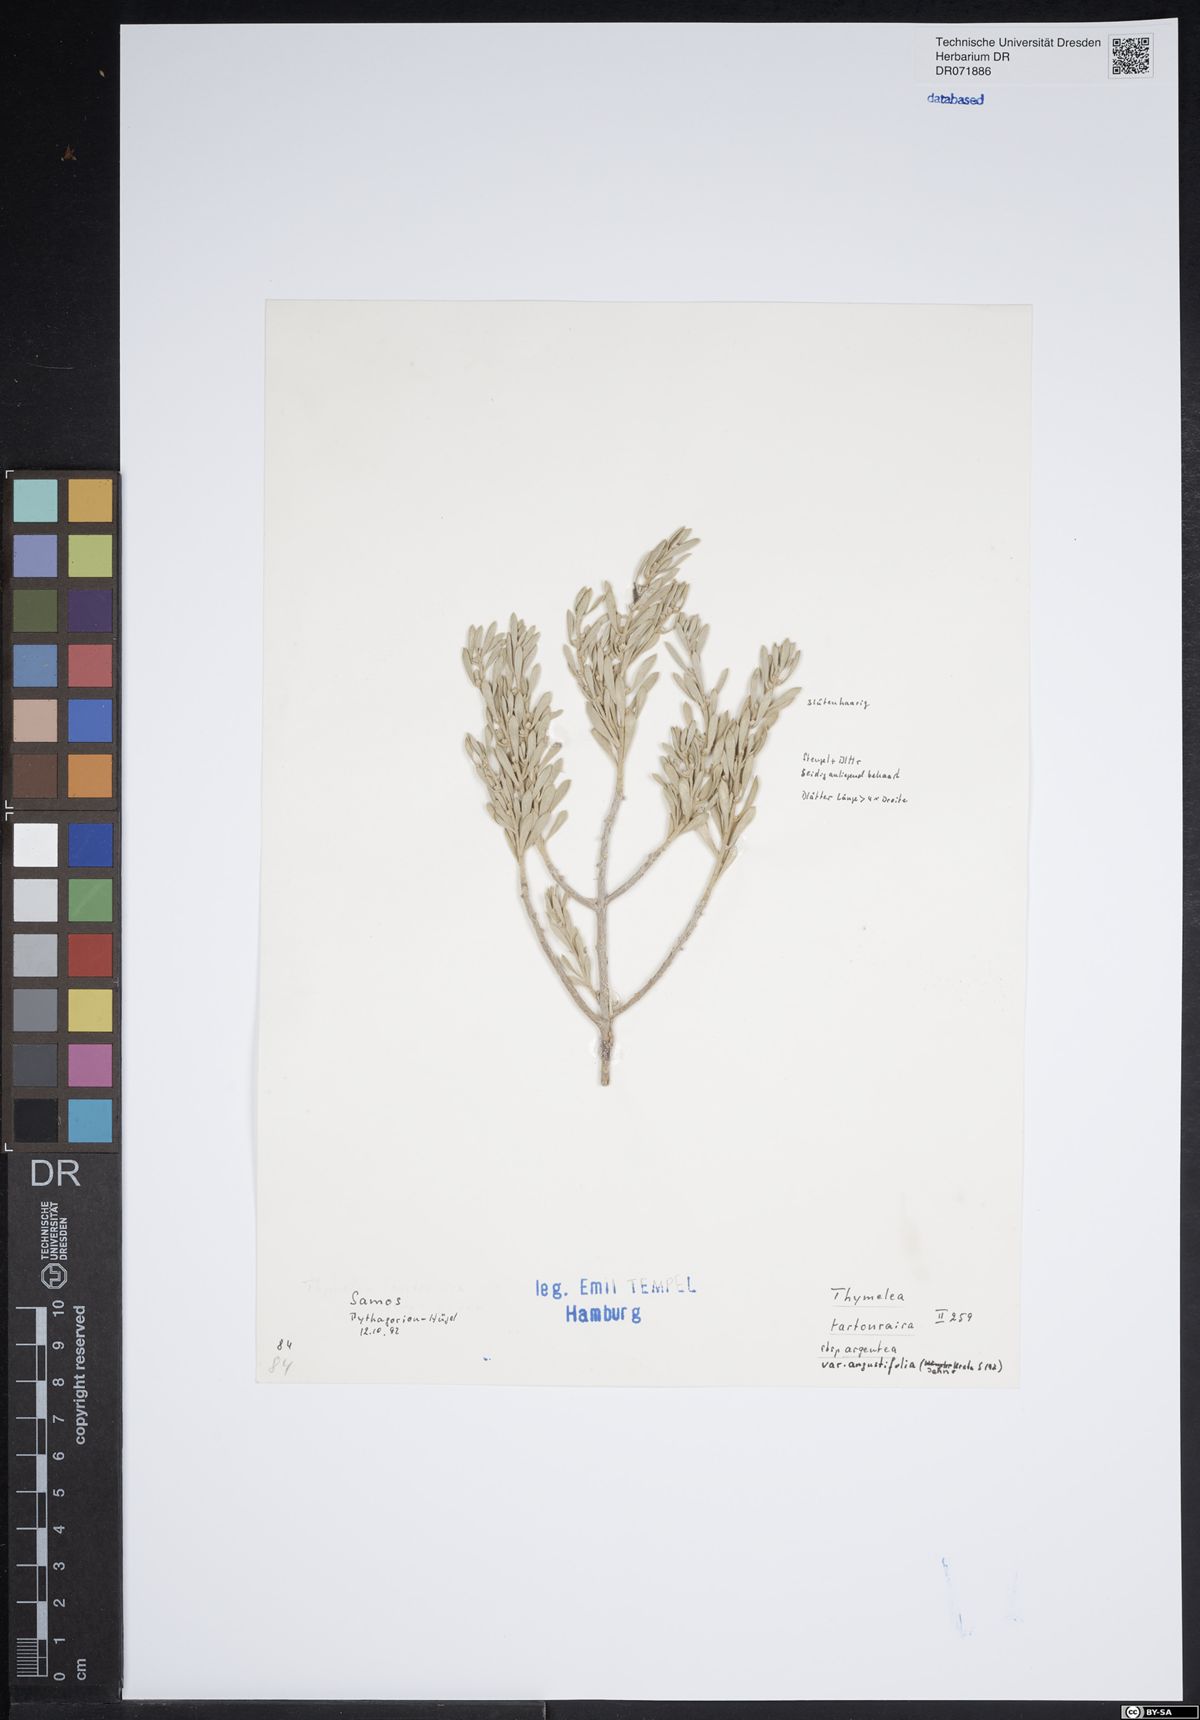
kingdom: Plantae
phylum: Tracheophyta
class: Magnoliopsida
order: Malvales
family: Thymelaeaceae
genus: Thymelaea
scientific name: Thymelaea tartonraira
